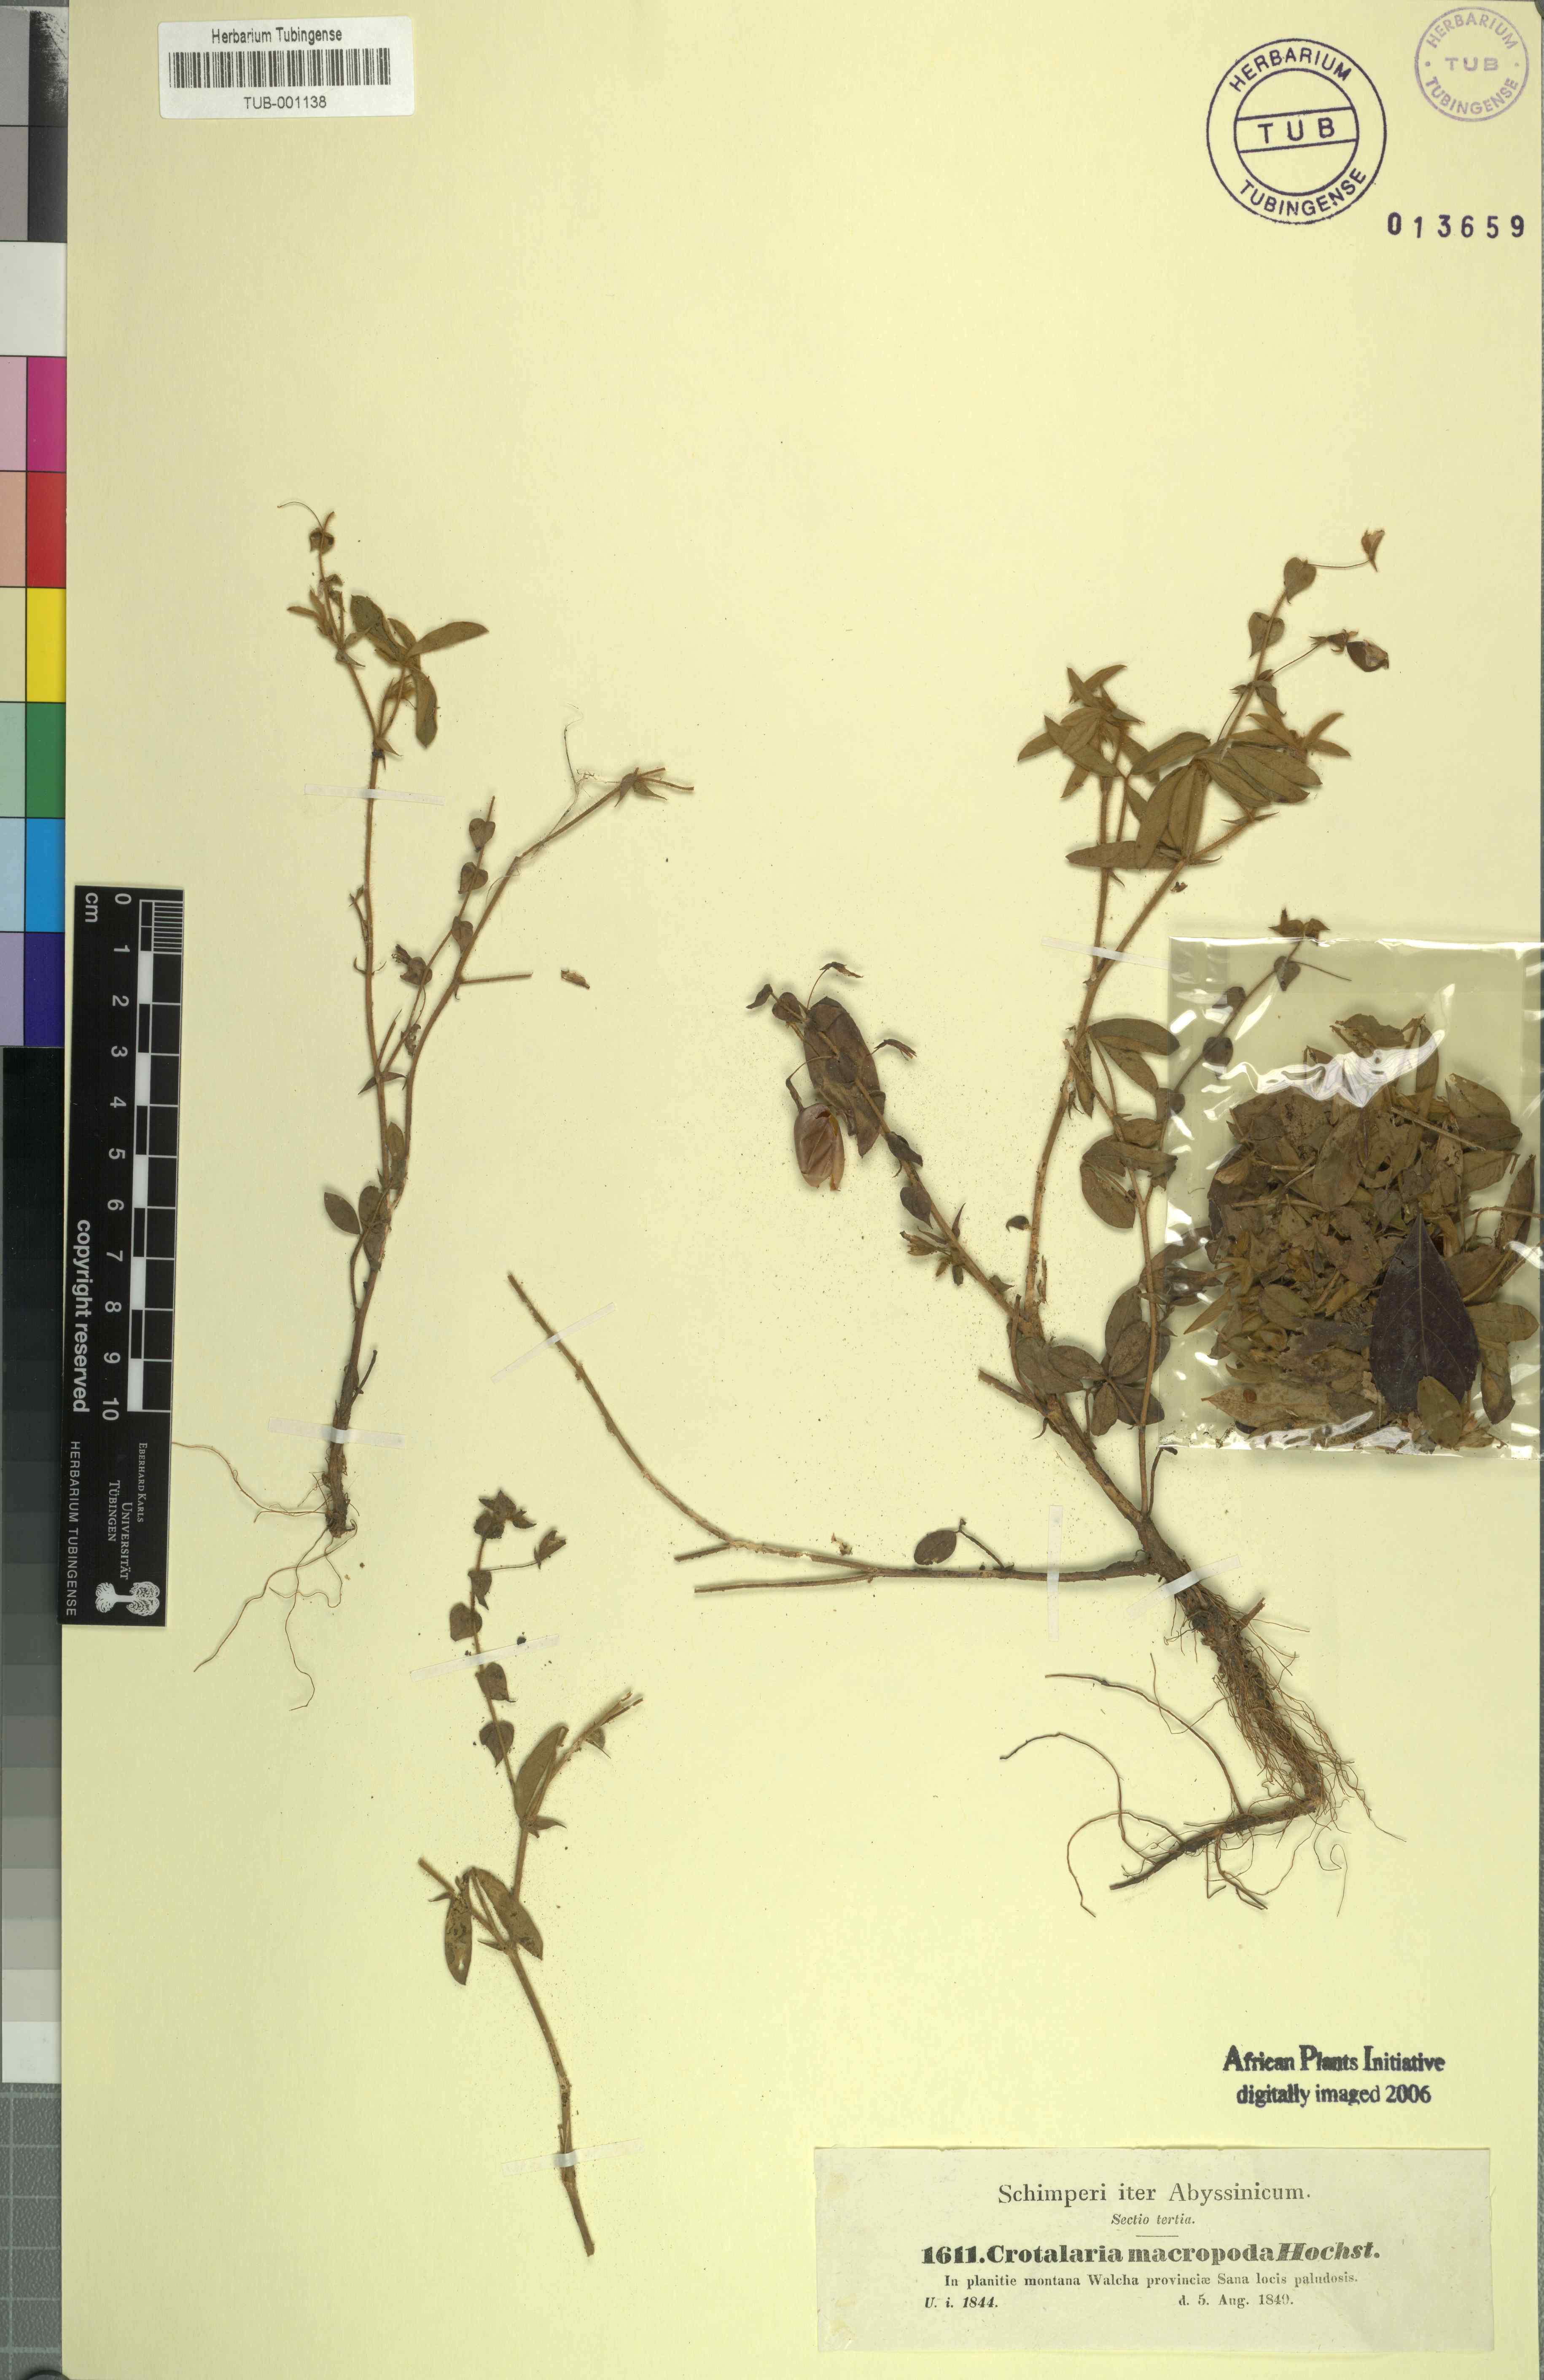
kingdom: Plantae
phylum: Tracheophyta
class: Magnoliopsida
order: Fabales
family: Fabaceae
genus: Crotalaria
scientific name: Crotalaria orixensis
